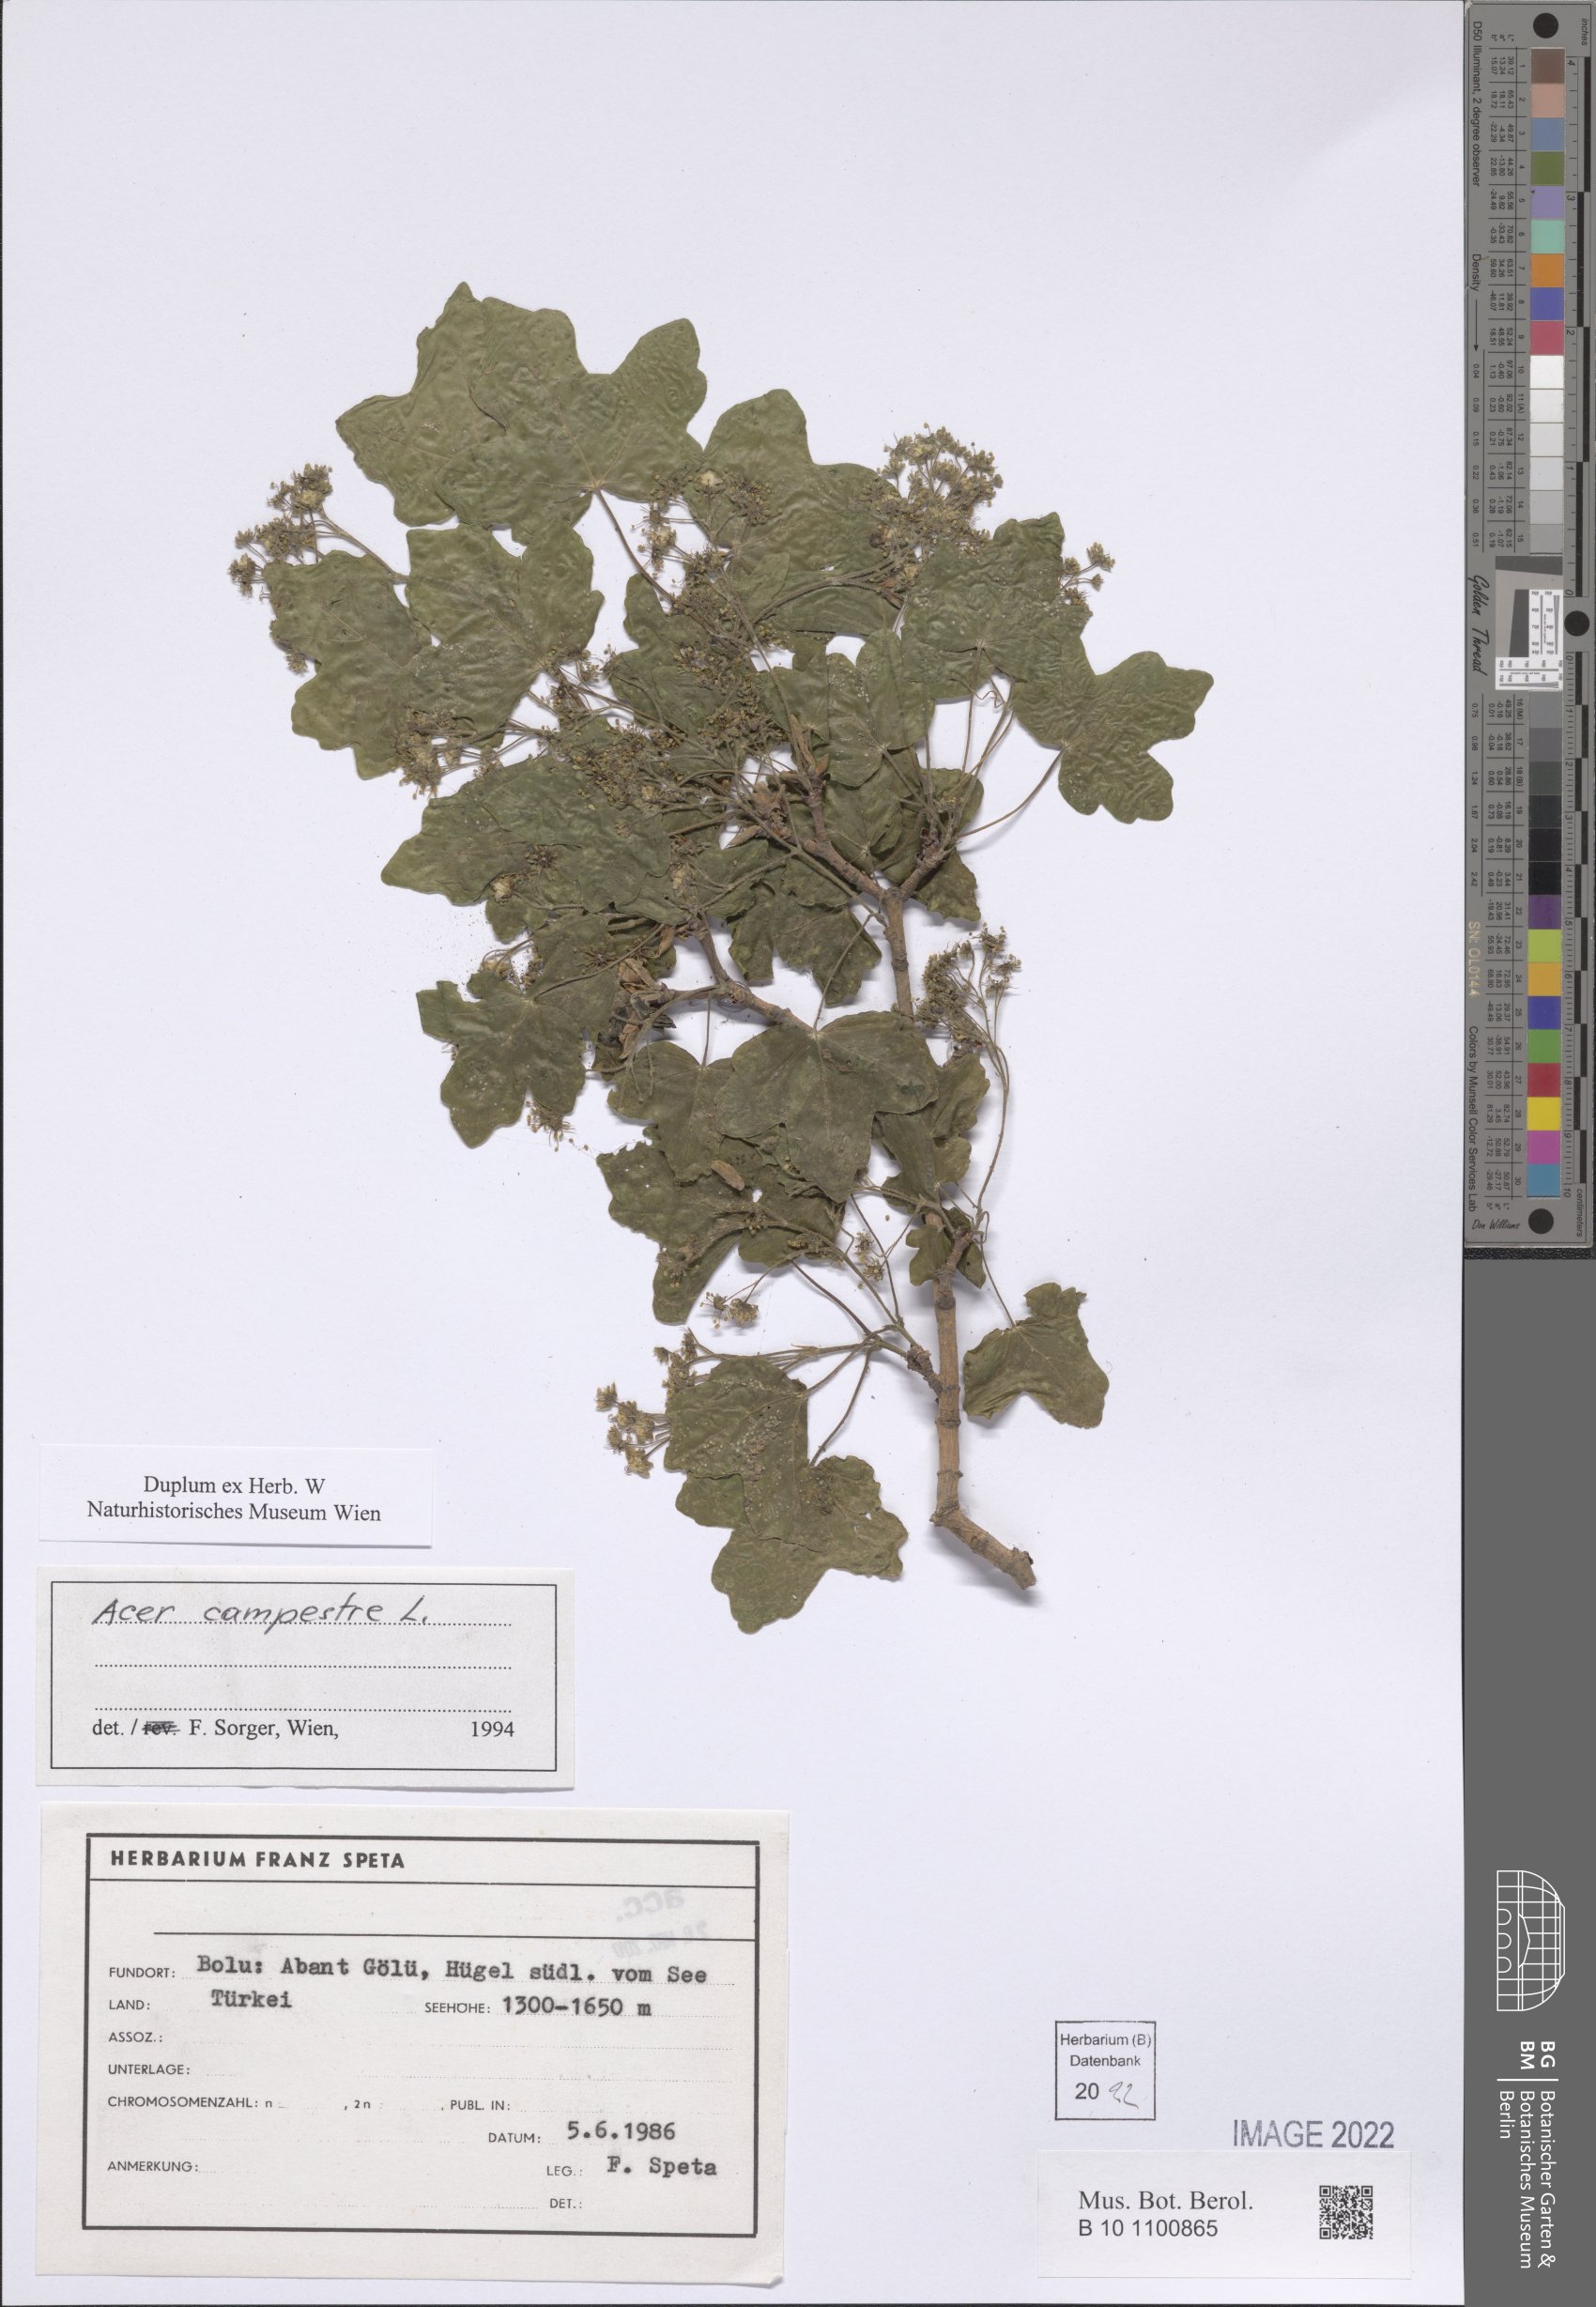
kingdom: Plantae
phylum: Tracheophyta
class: Magnoliopsida
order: Sapindales
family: Sapindaceae
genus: Acer
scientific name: Acer campestre
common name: Field maple
